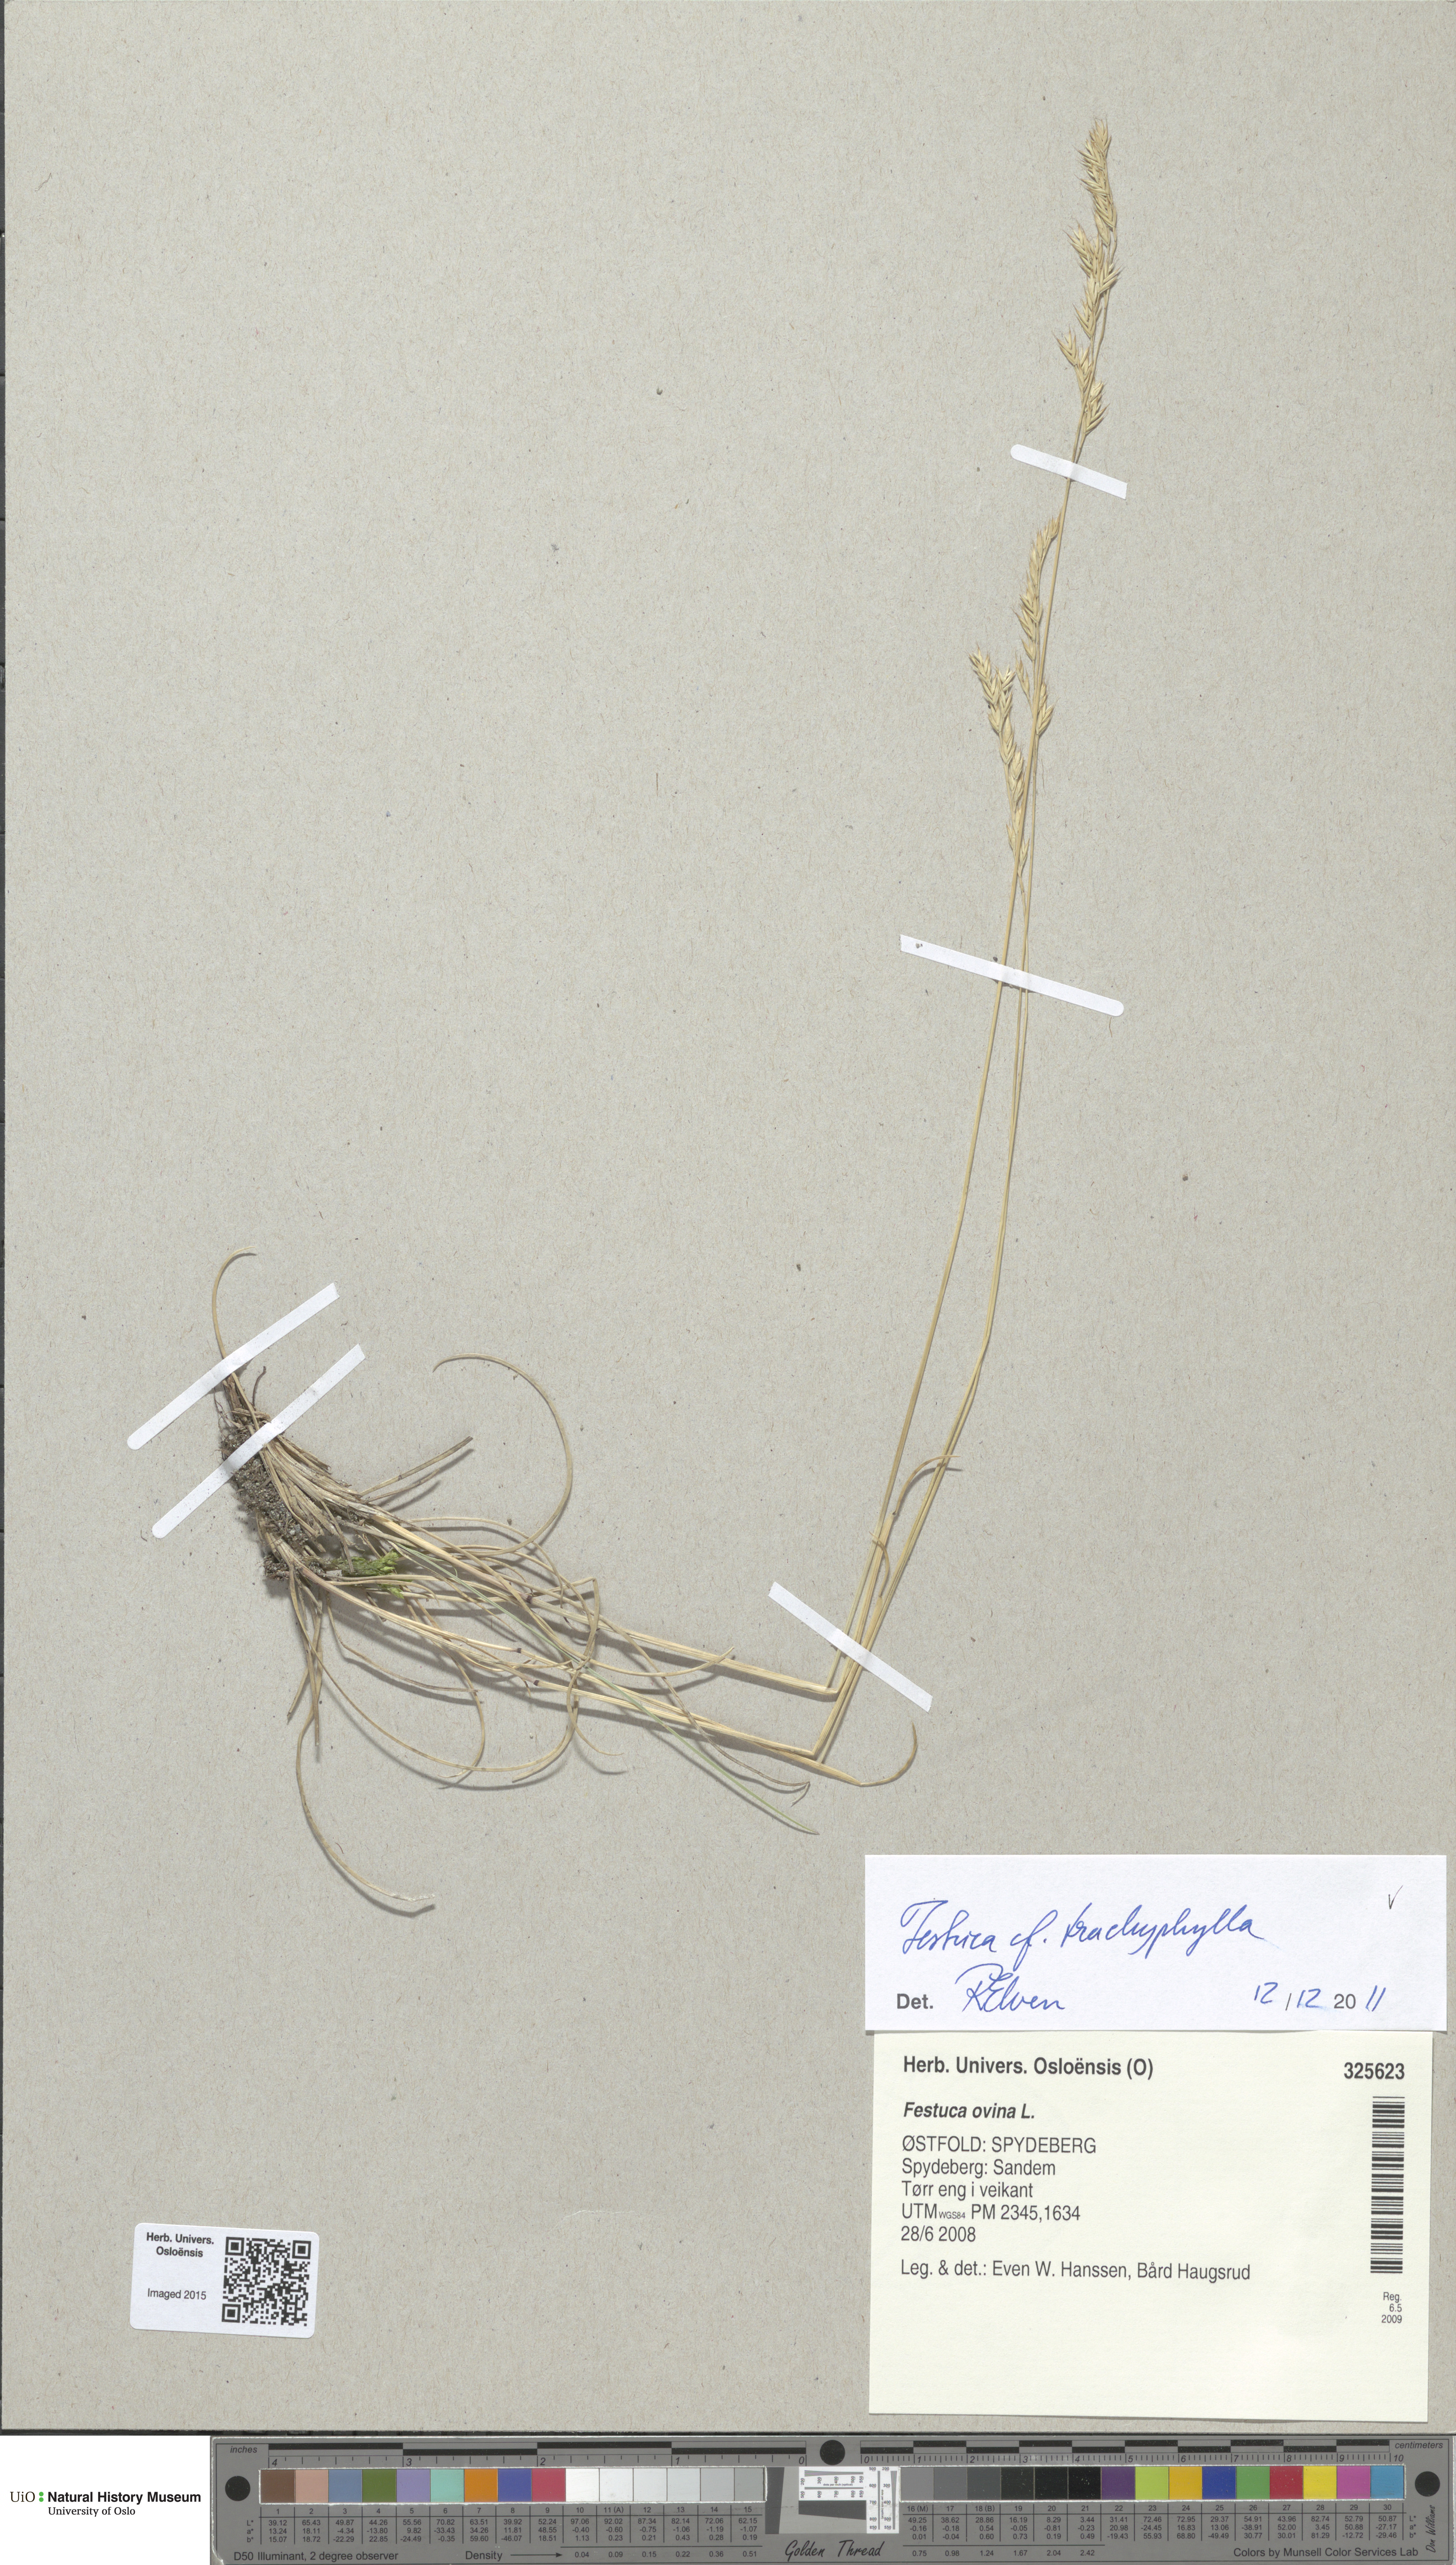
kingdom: Plantae
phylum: Tracheophyta
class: Liliopsida
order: Poales
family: Poaceae
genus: Festuca
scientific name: Festuca trachyphylla
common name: Hard fescue
